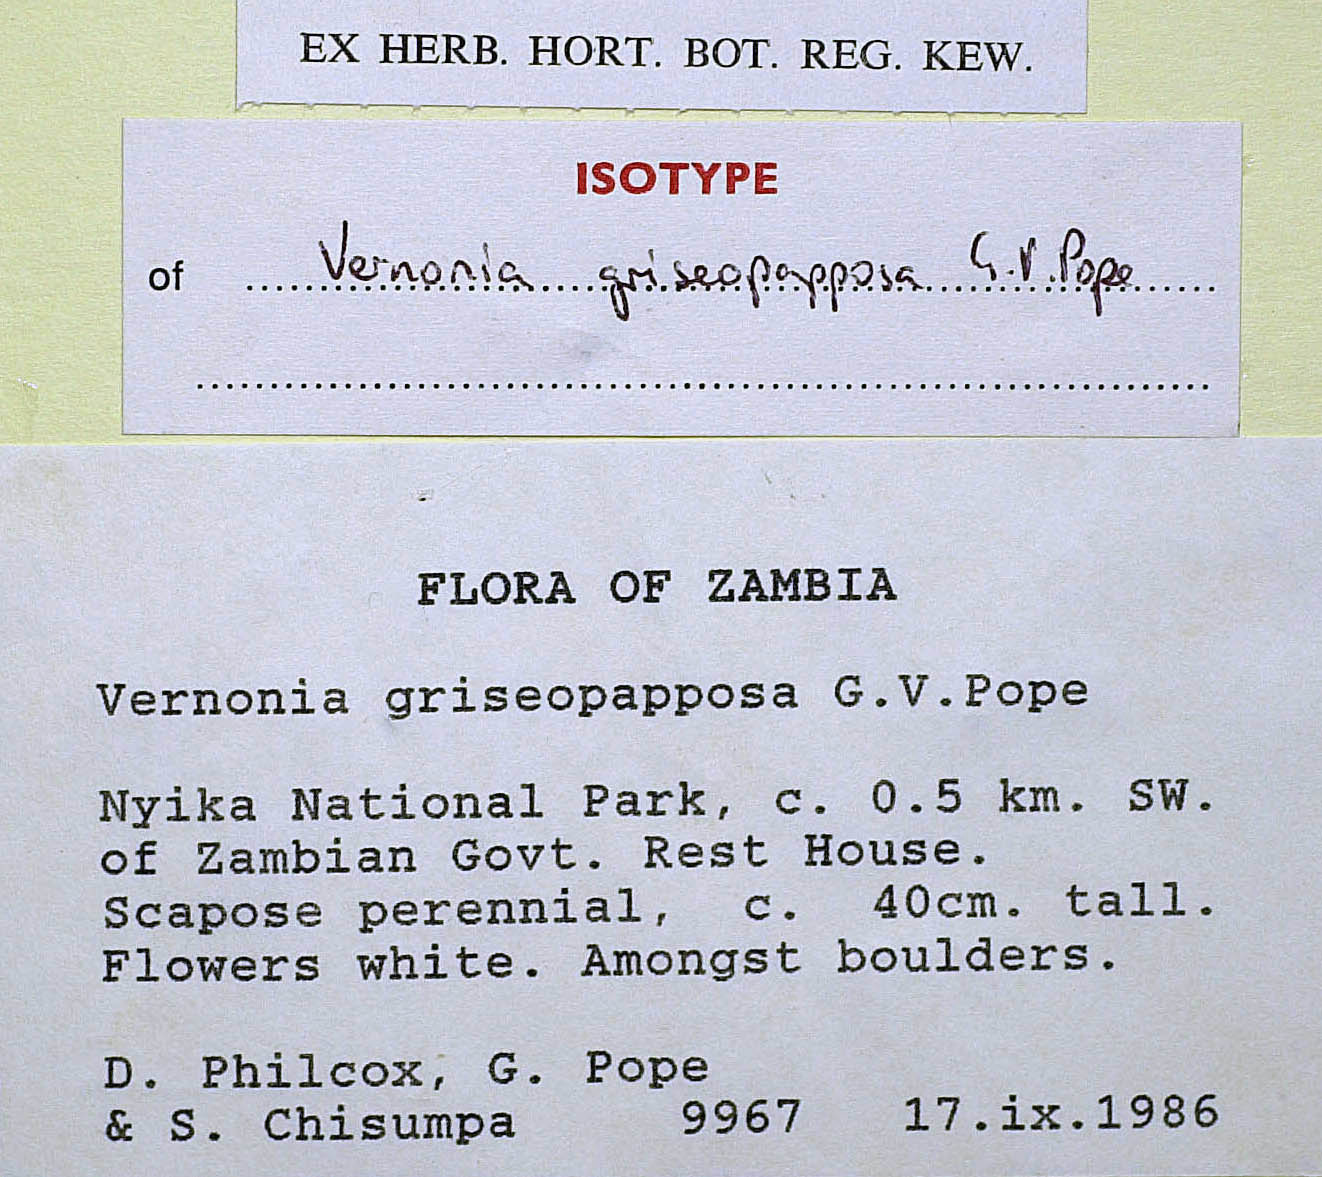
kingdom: Plantae
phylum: Tracheophyta
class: Magnoliopsida
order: Asterales
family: Asteraceae
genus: Vernonia
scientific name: Vernonia griseopapposa
